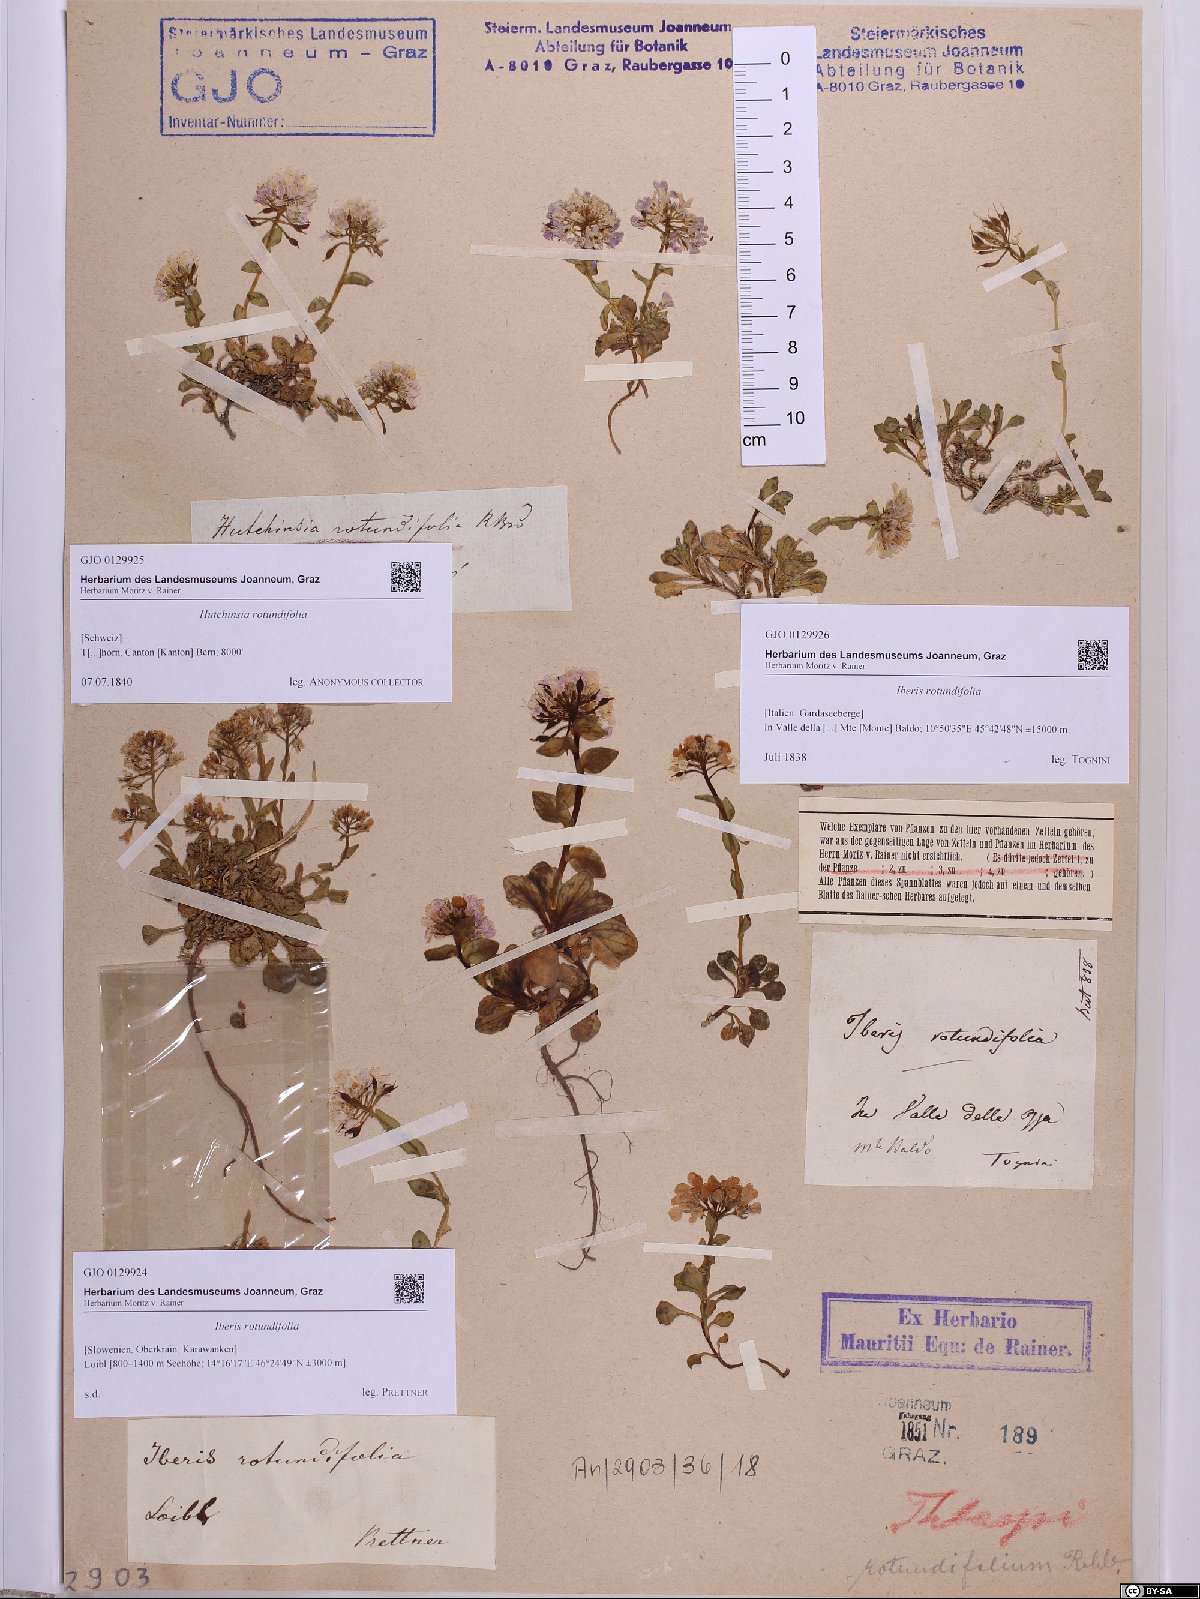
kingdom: Plantae
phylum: Tracheophyta
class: Magnoliopsida
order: Brassicales
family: Brassicaceae
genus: Noccaea
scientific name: Noccaea rotundifolia
